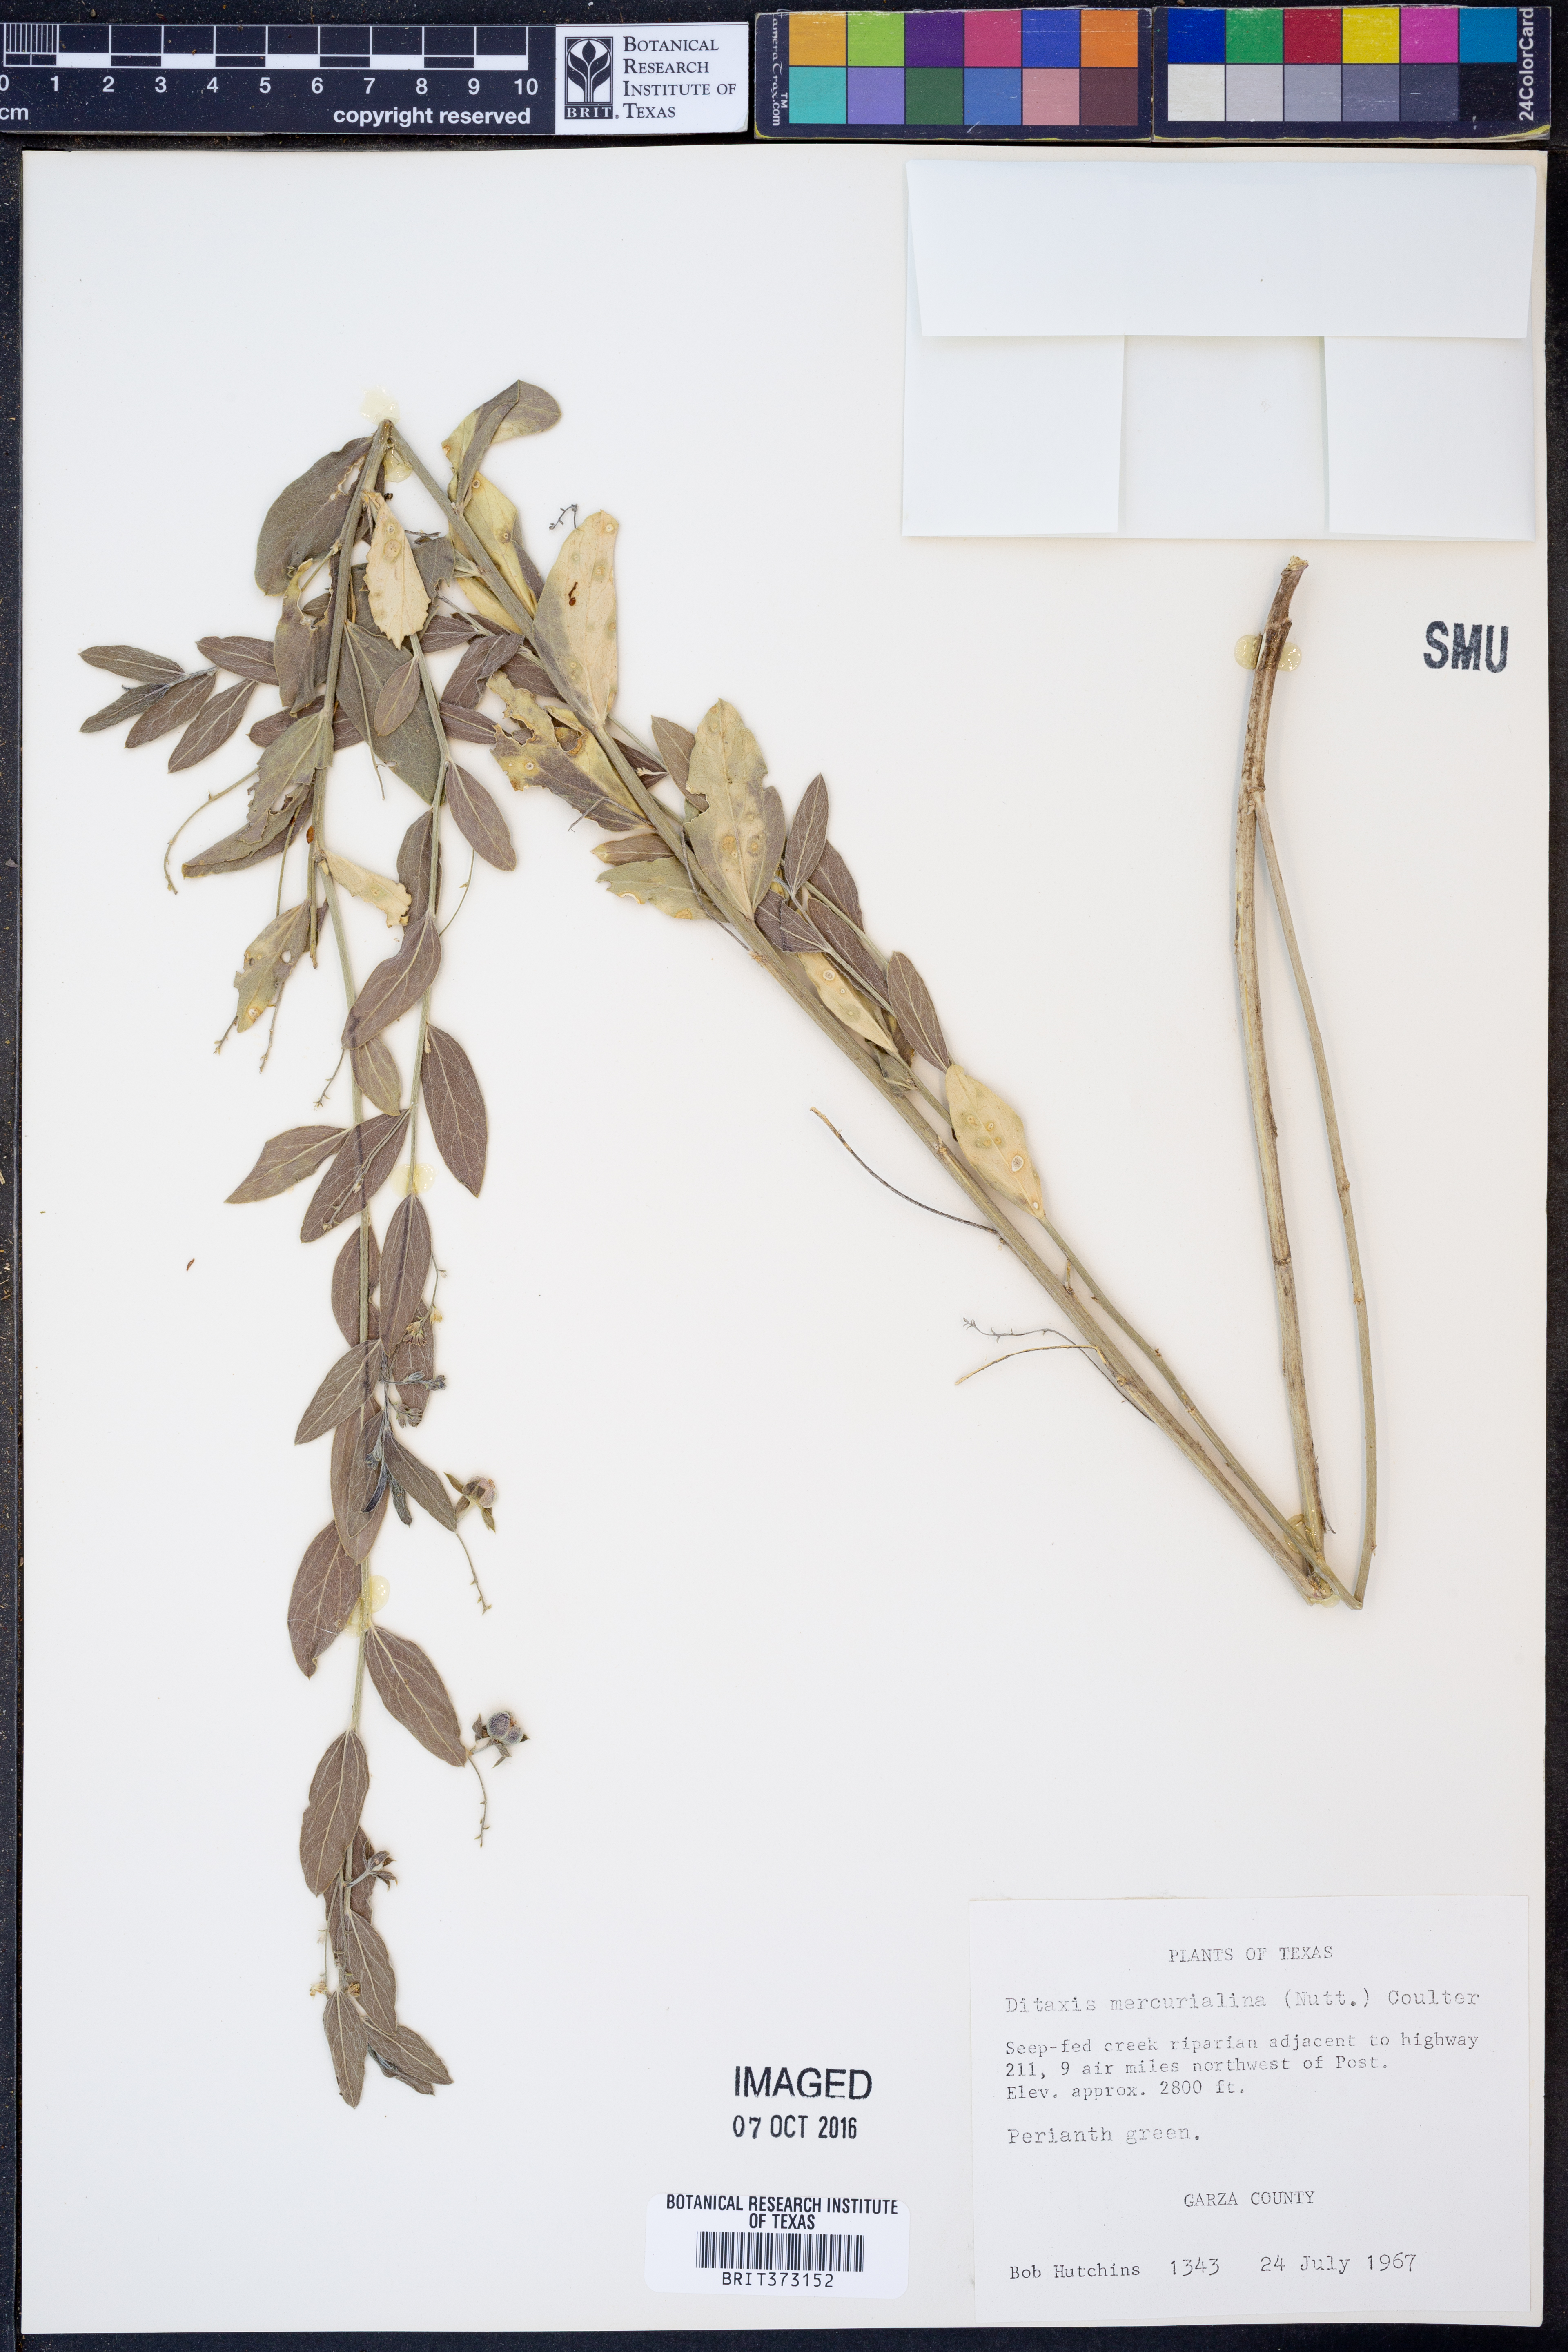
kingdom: Plantae
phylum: Tracheophyta
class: Magnoliopsida
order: Malpighiales
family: Euphorbiaceae
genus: Ditaxis
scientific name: Ditaxis mercurialina
